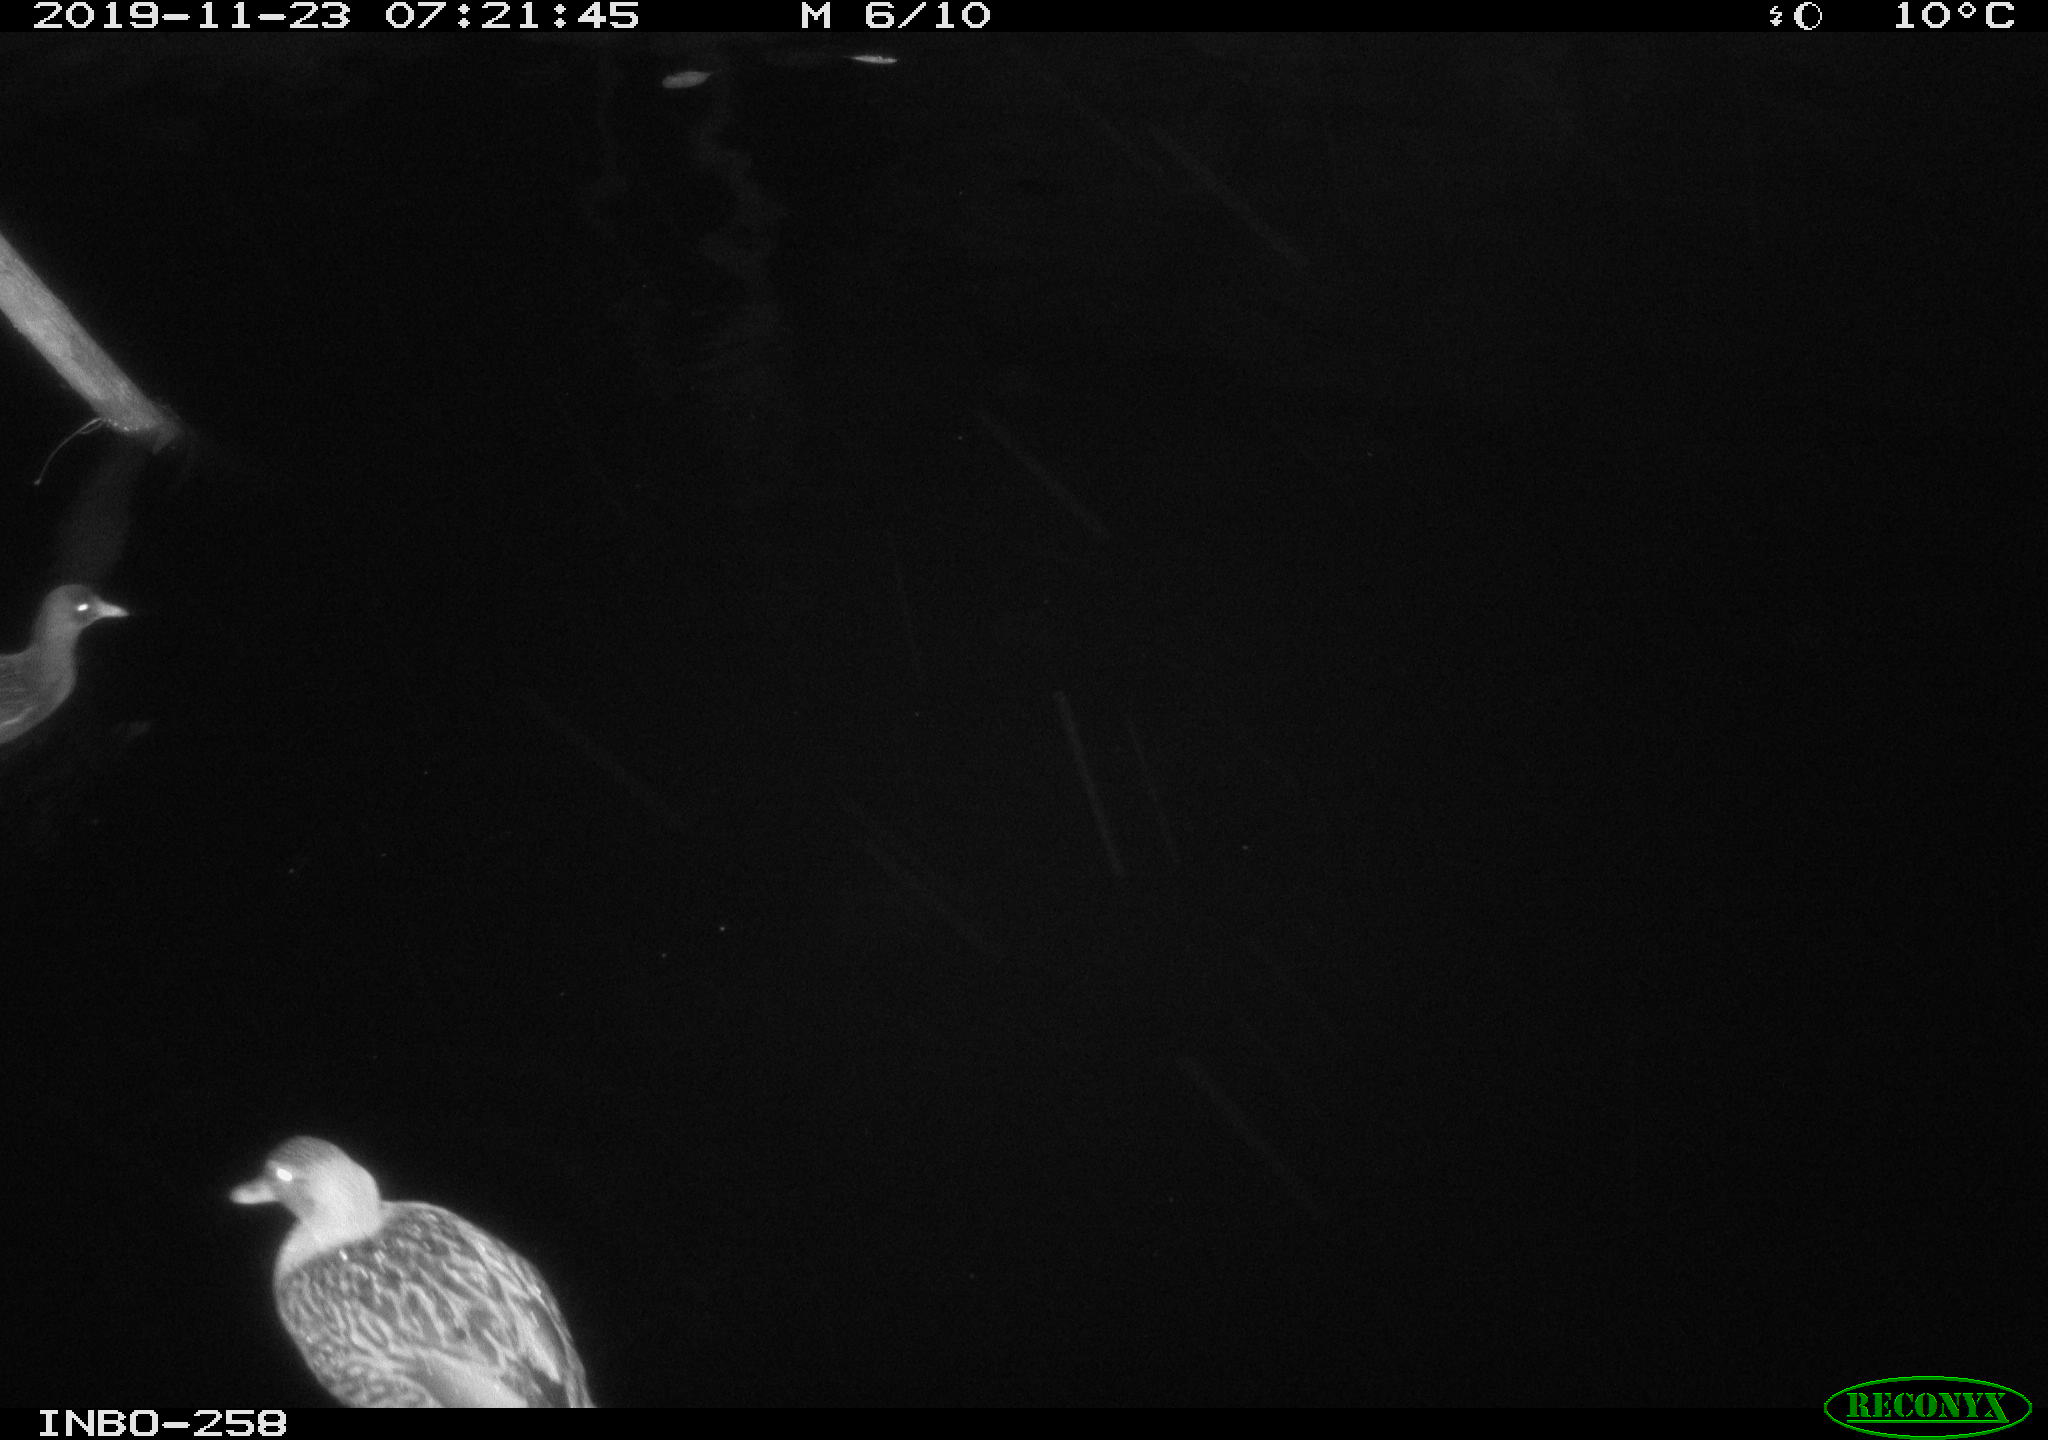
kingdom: Animalia
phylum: Chordata
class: Aves
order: Anseriformes
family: Anatidae
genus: Anas
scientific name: Anas platyrhynchos
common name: Mallard
